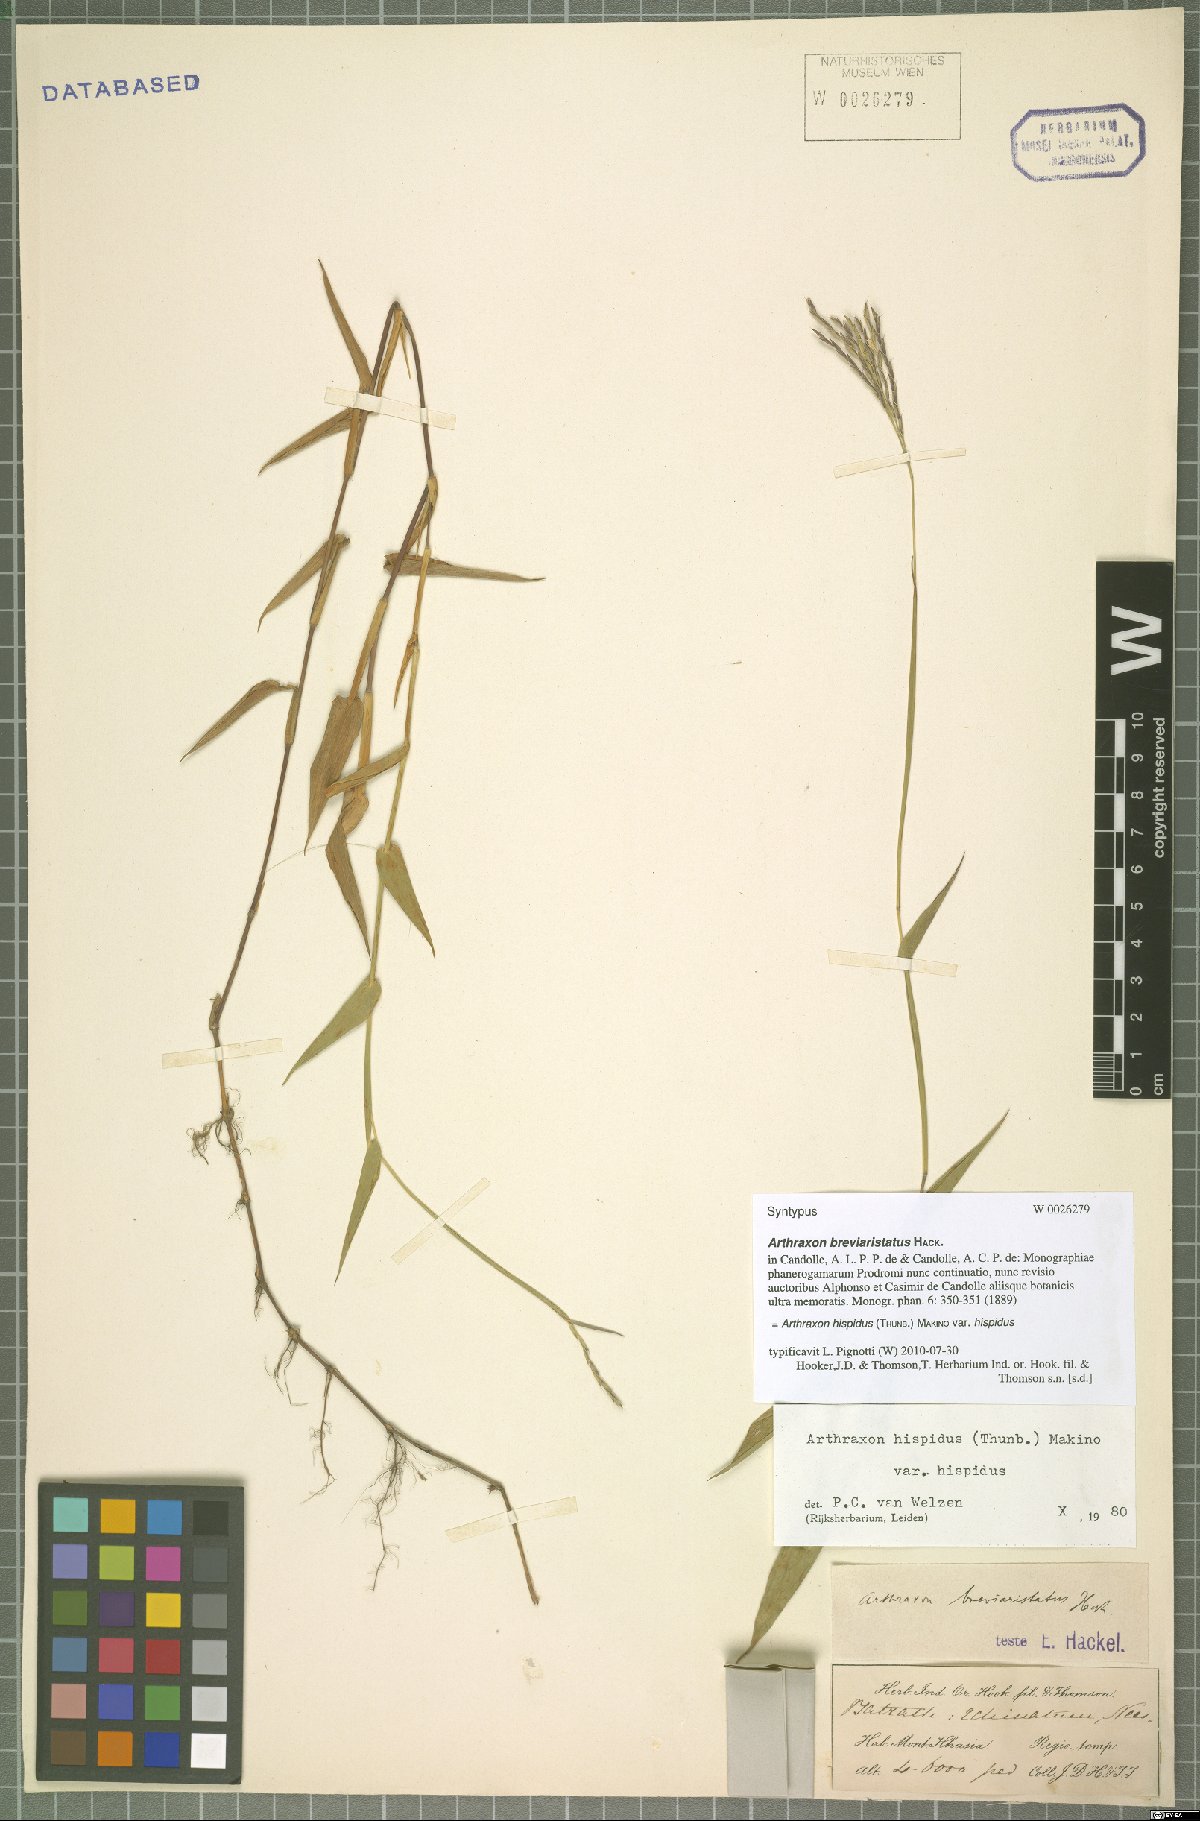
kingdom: Plantae
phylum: Tracheophyta
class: Liliopsida
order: Poales
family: Poaceae
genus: Arthraxon
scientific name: Arthraxon hispidus
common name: Small carpgrass
